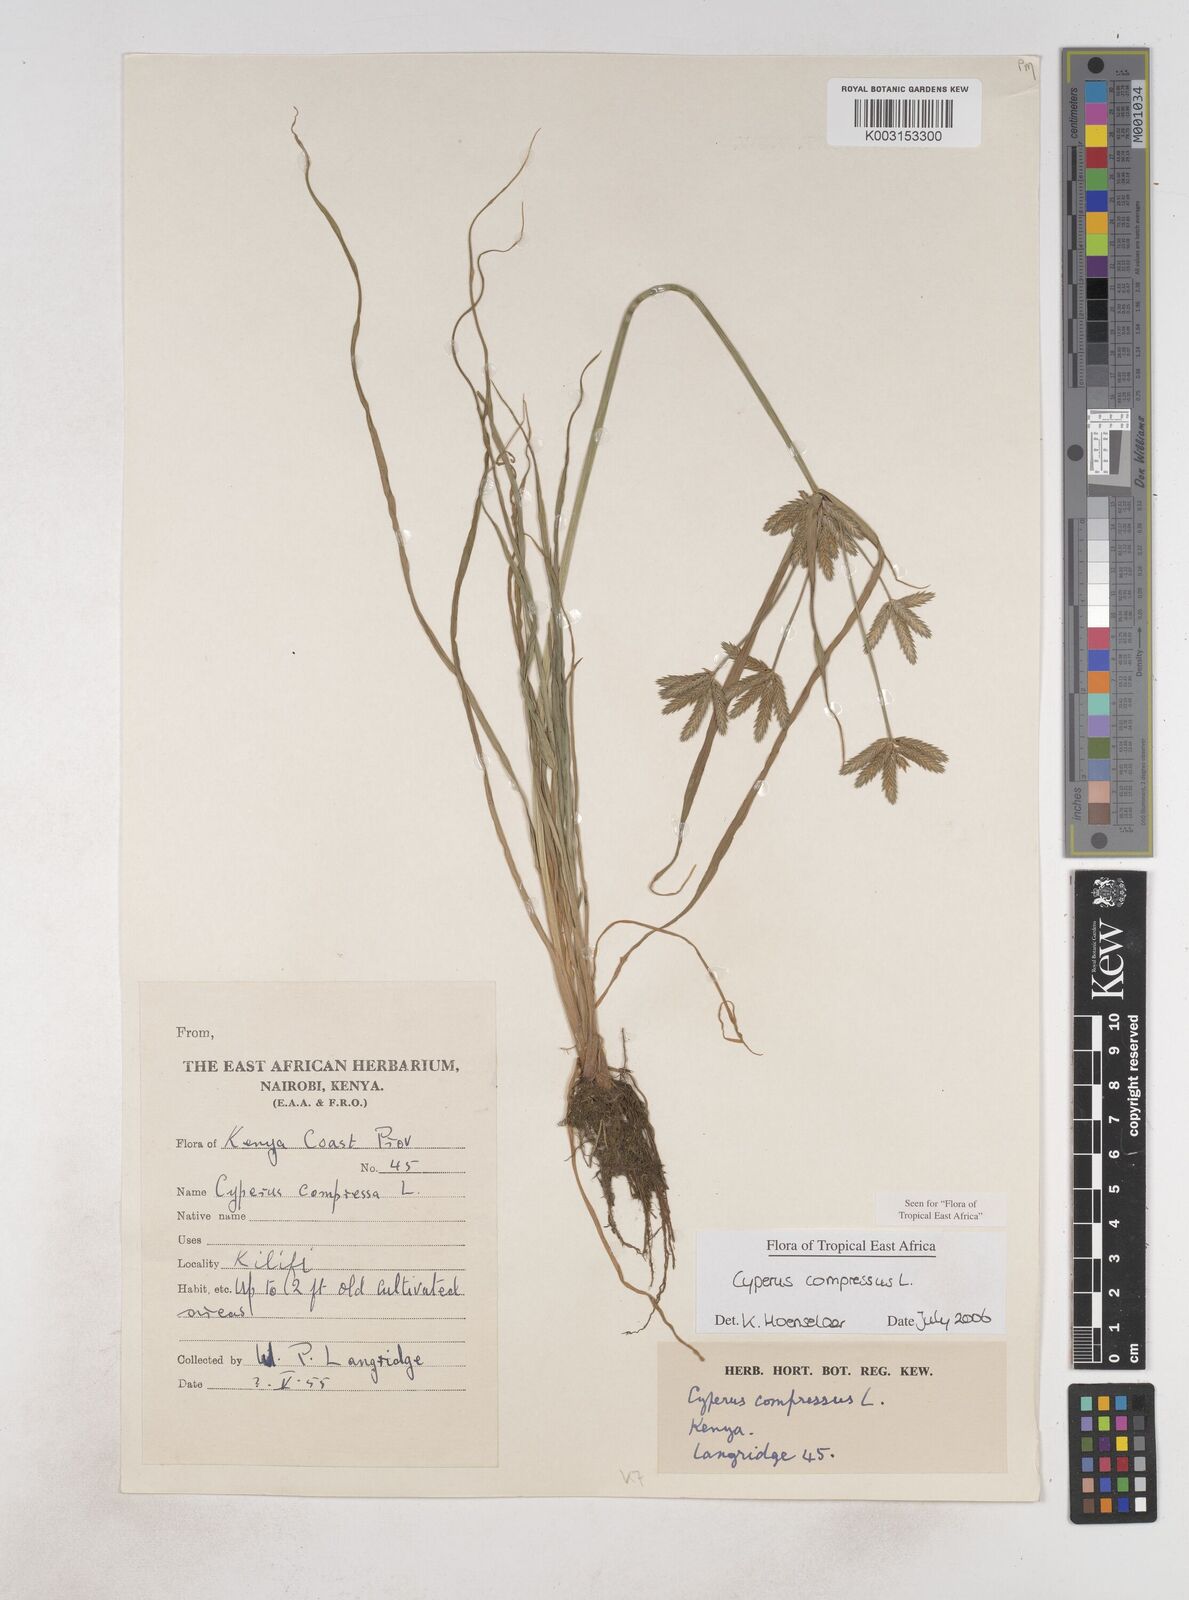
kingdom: Plantae
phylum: Tracheophyta
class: Liliopsida
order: Poales
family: Cyperaceae
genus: Cyperus
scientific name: Cyperus compressus
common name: Poorland flatsedge
